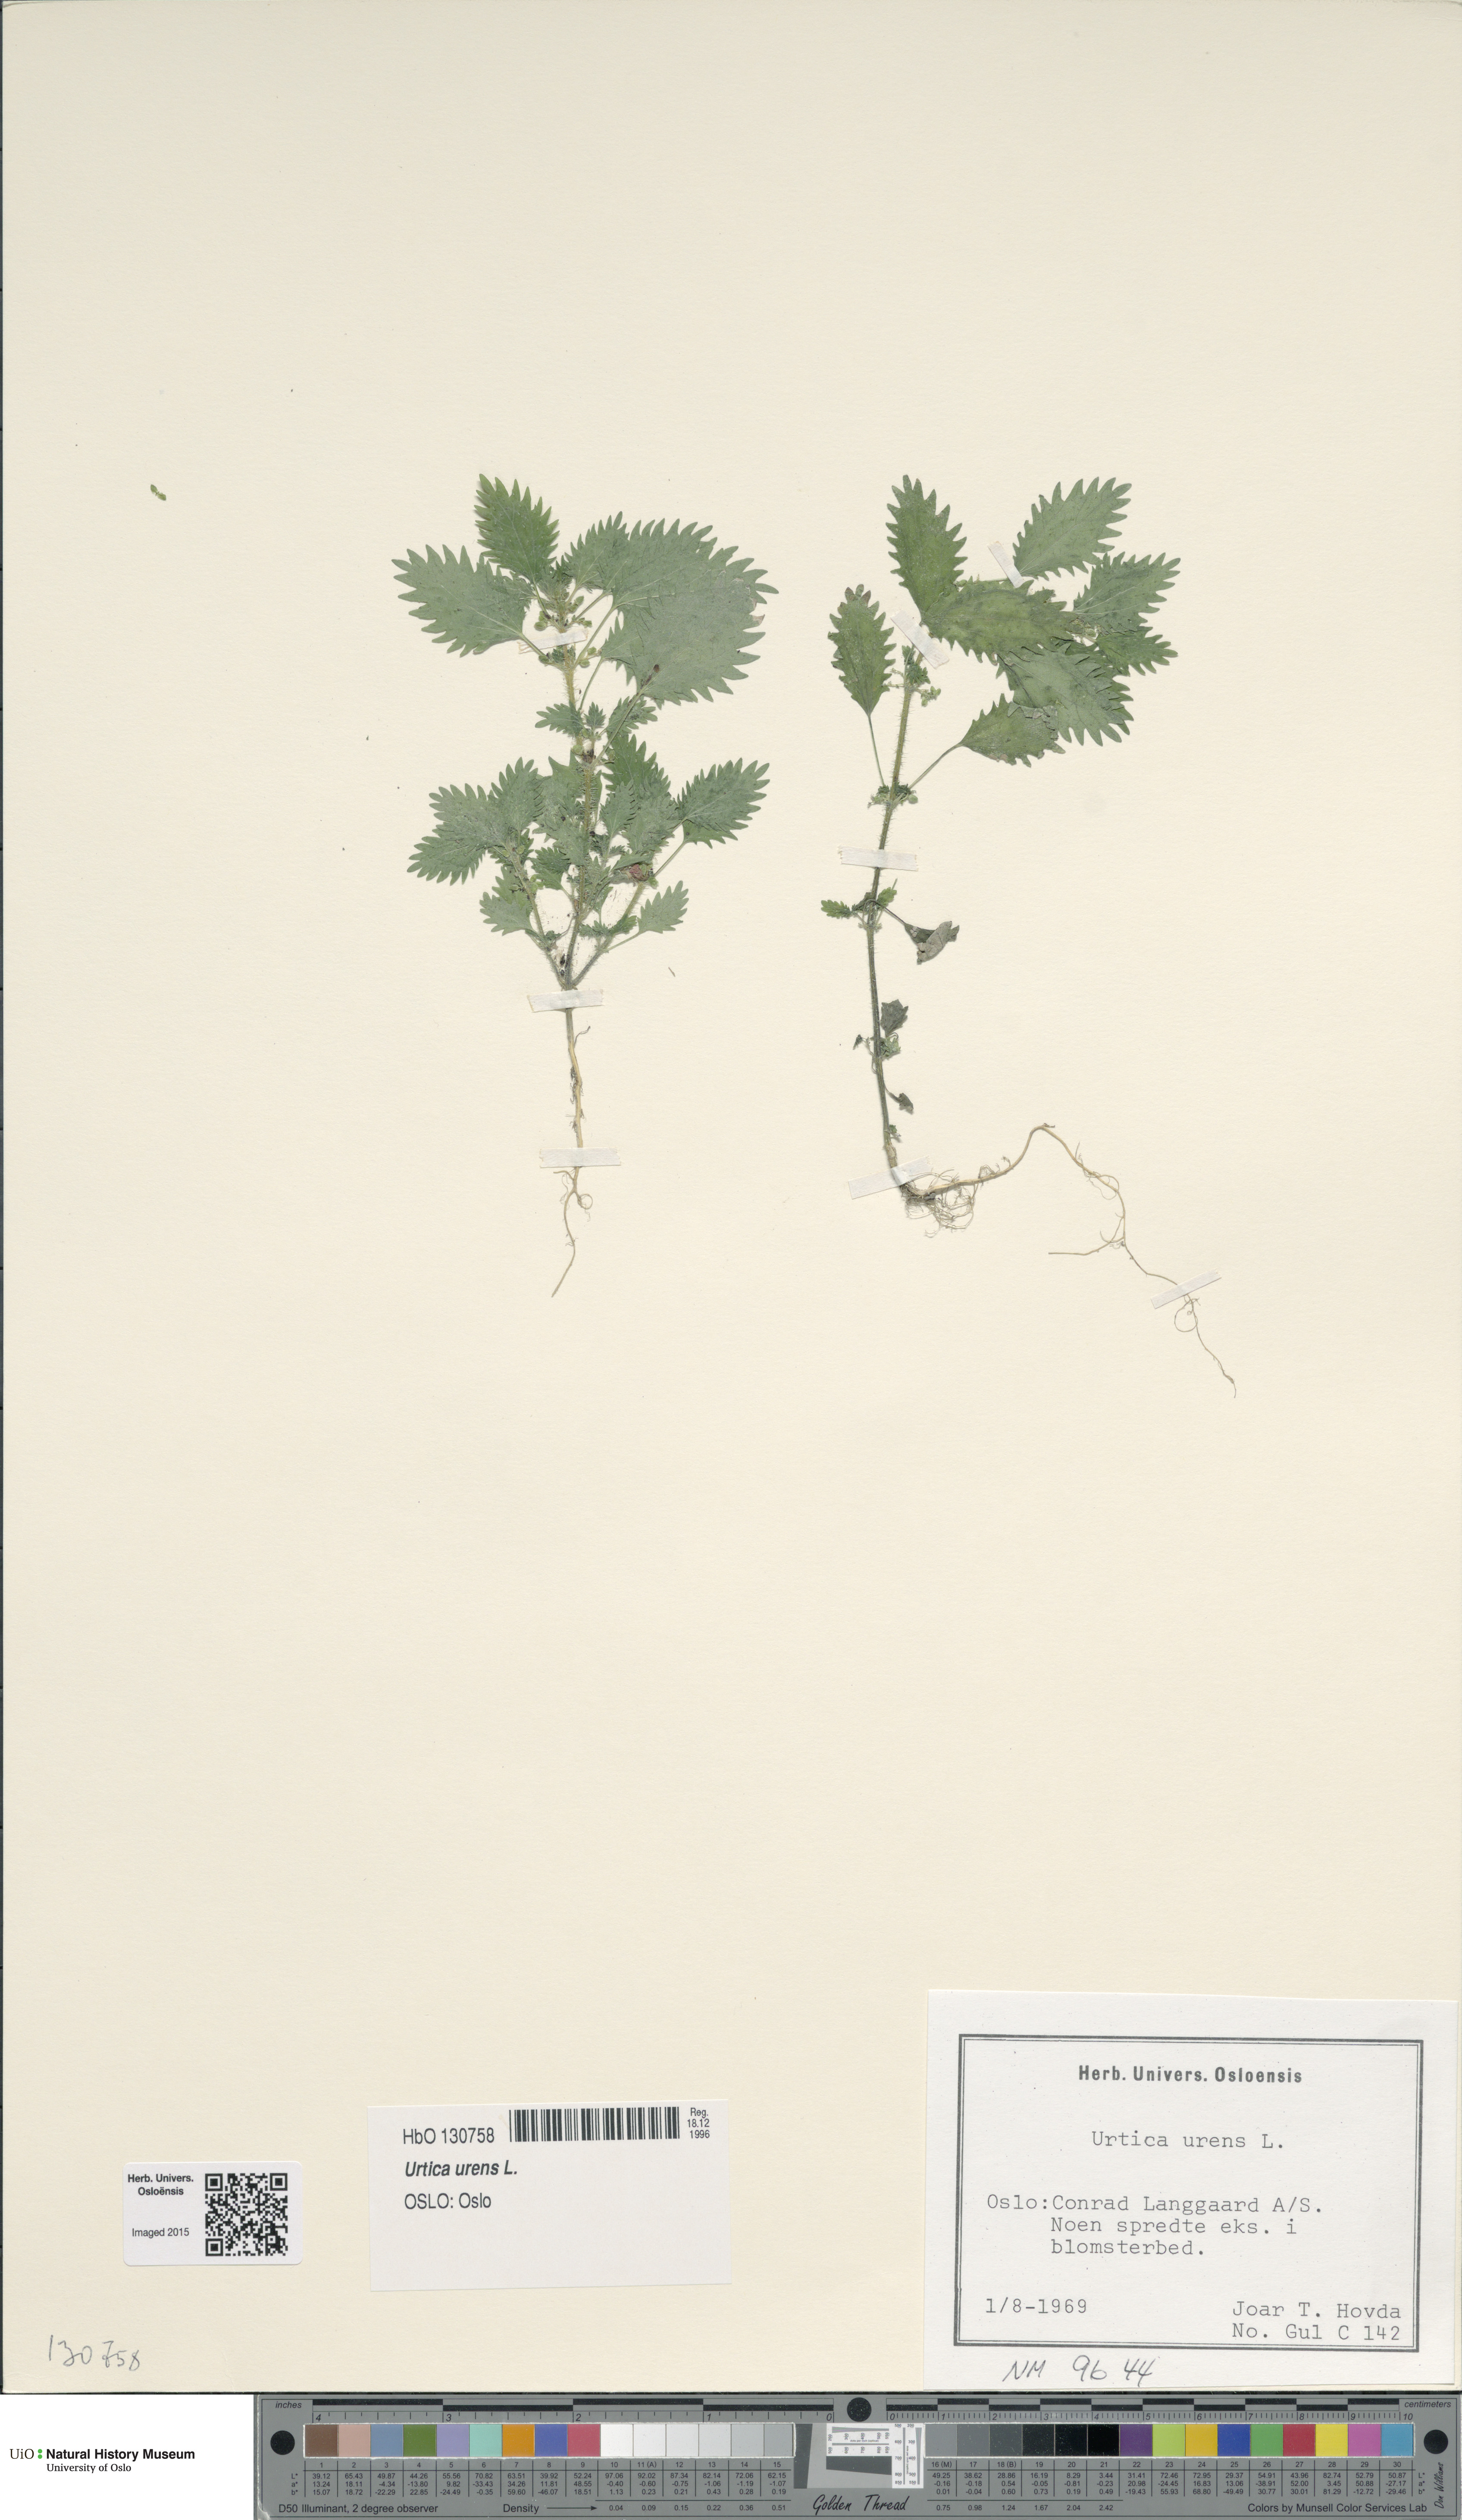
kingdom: Plantae
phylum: Tracheophyta
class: Magnoliopsida
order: Rosales
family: Urticaceae
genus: Urtica
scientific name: Urtica urens
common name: Dwarf nettle
